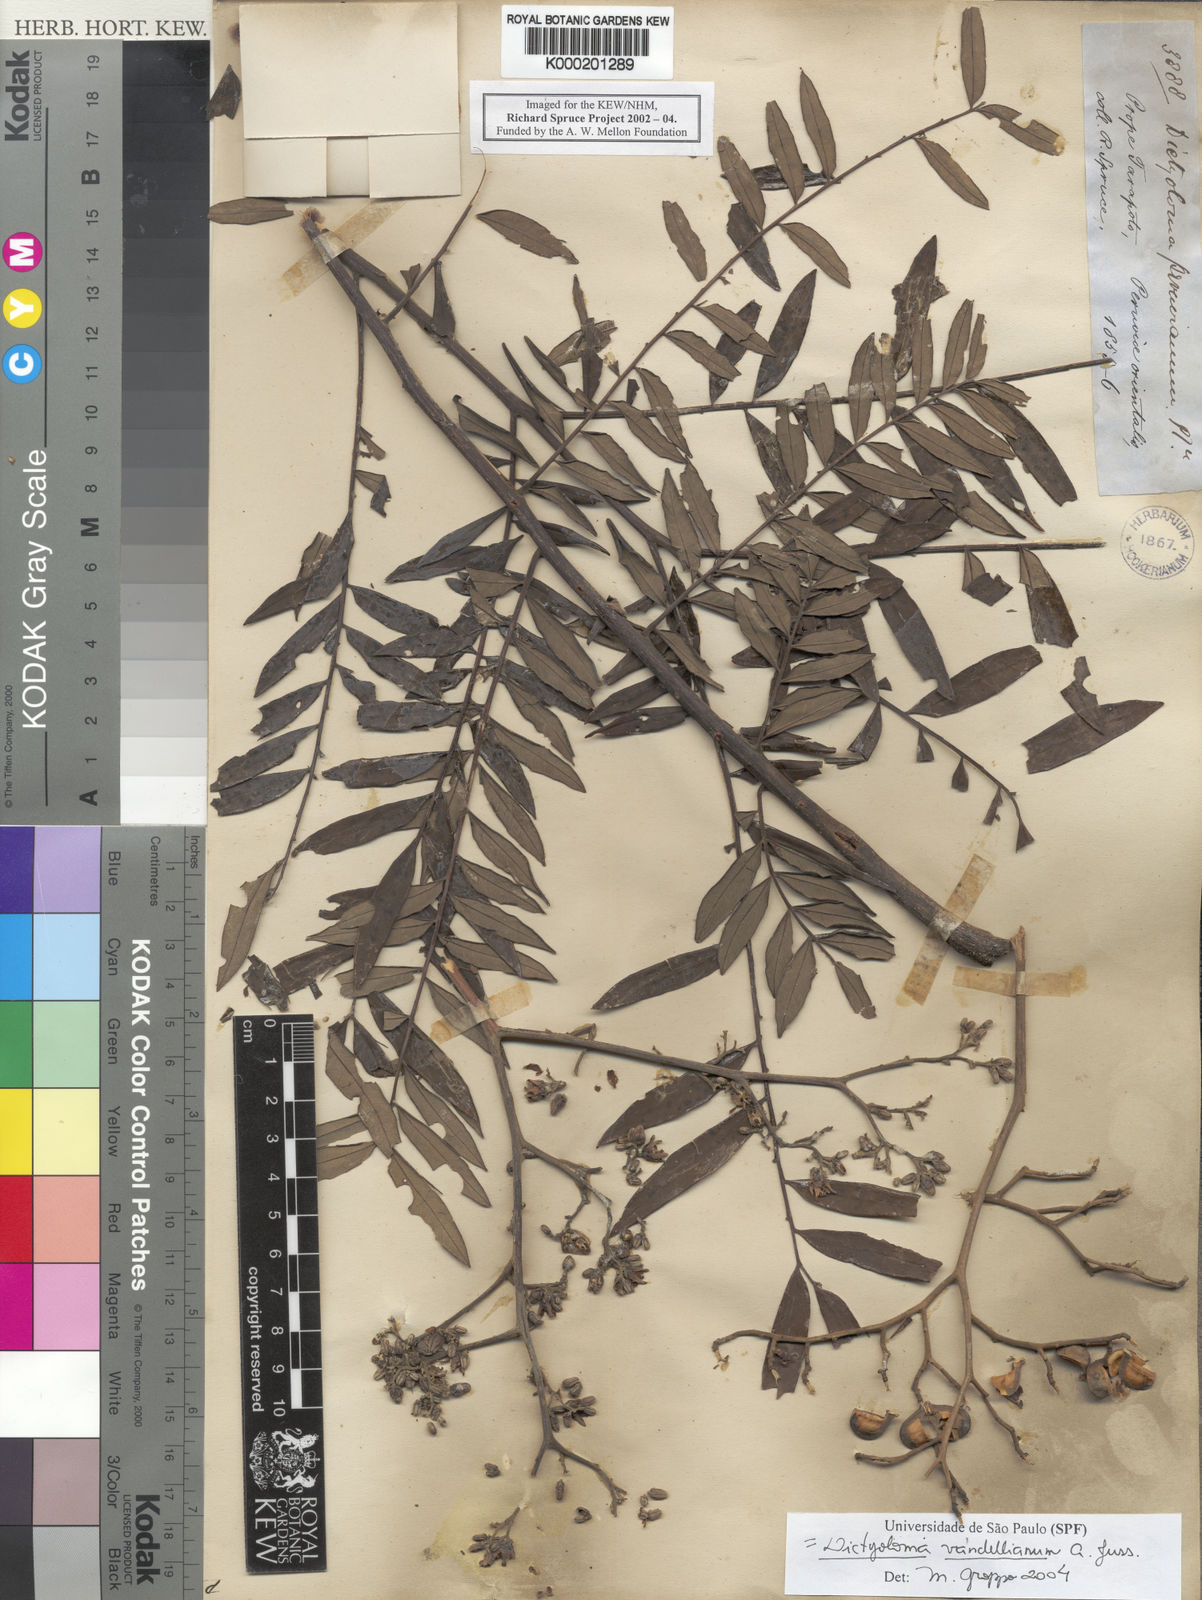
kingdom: Plantae
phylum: Tracheophyta
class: Magnoliopsida
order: Sapindales
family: Rutaceae
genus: Dictyoloma
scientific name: Dictyoloma vandellianum
